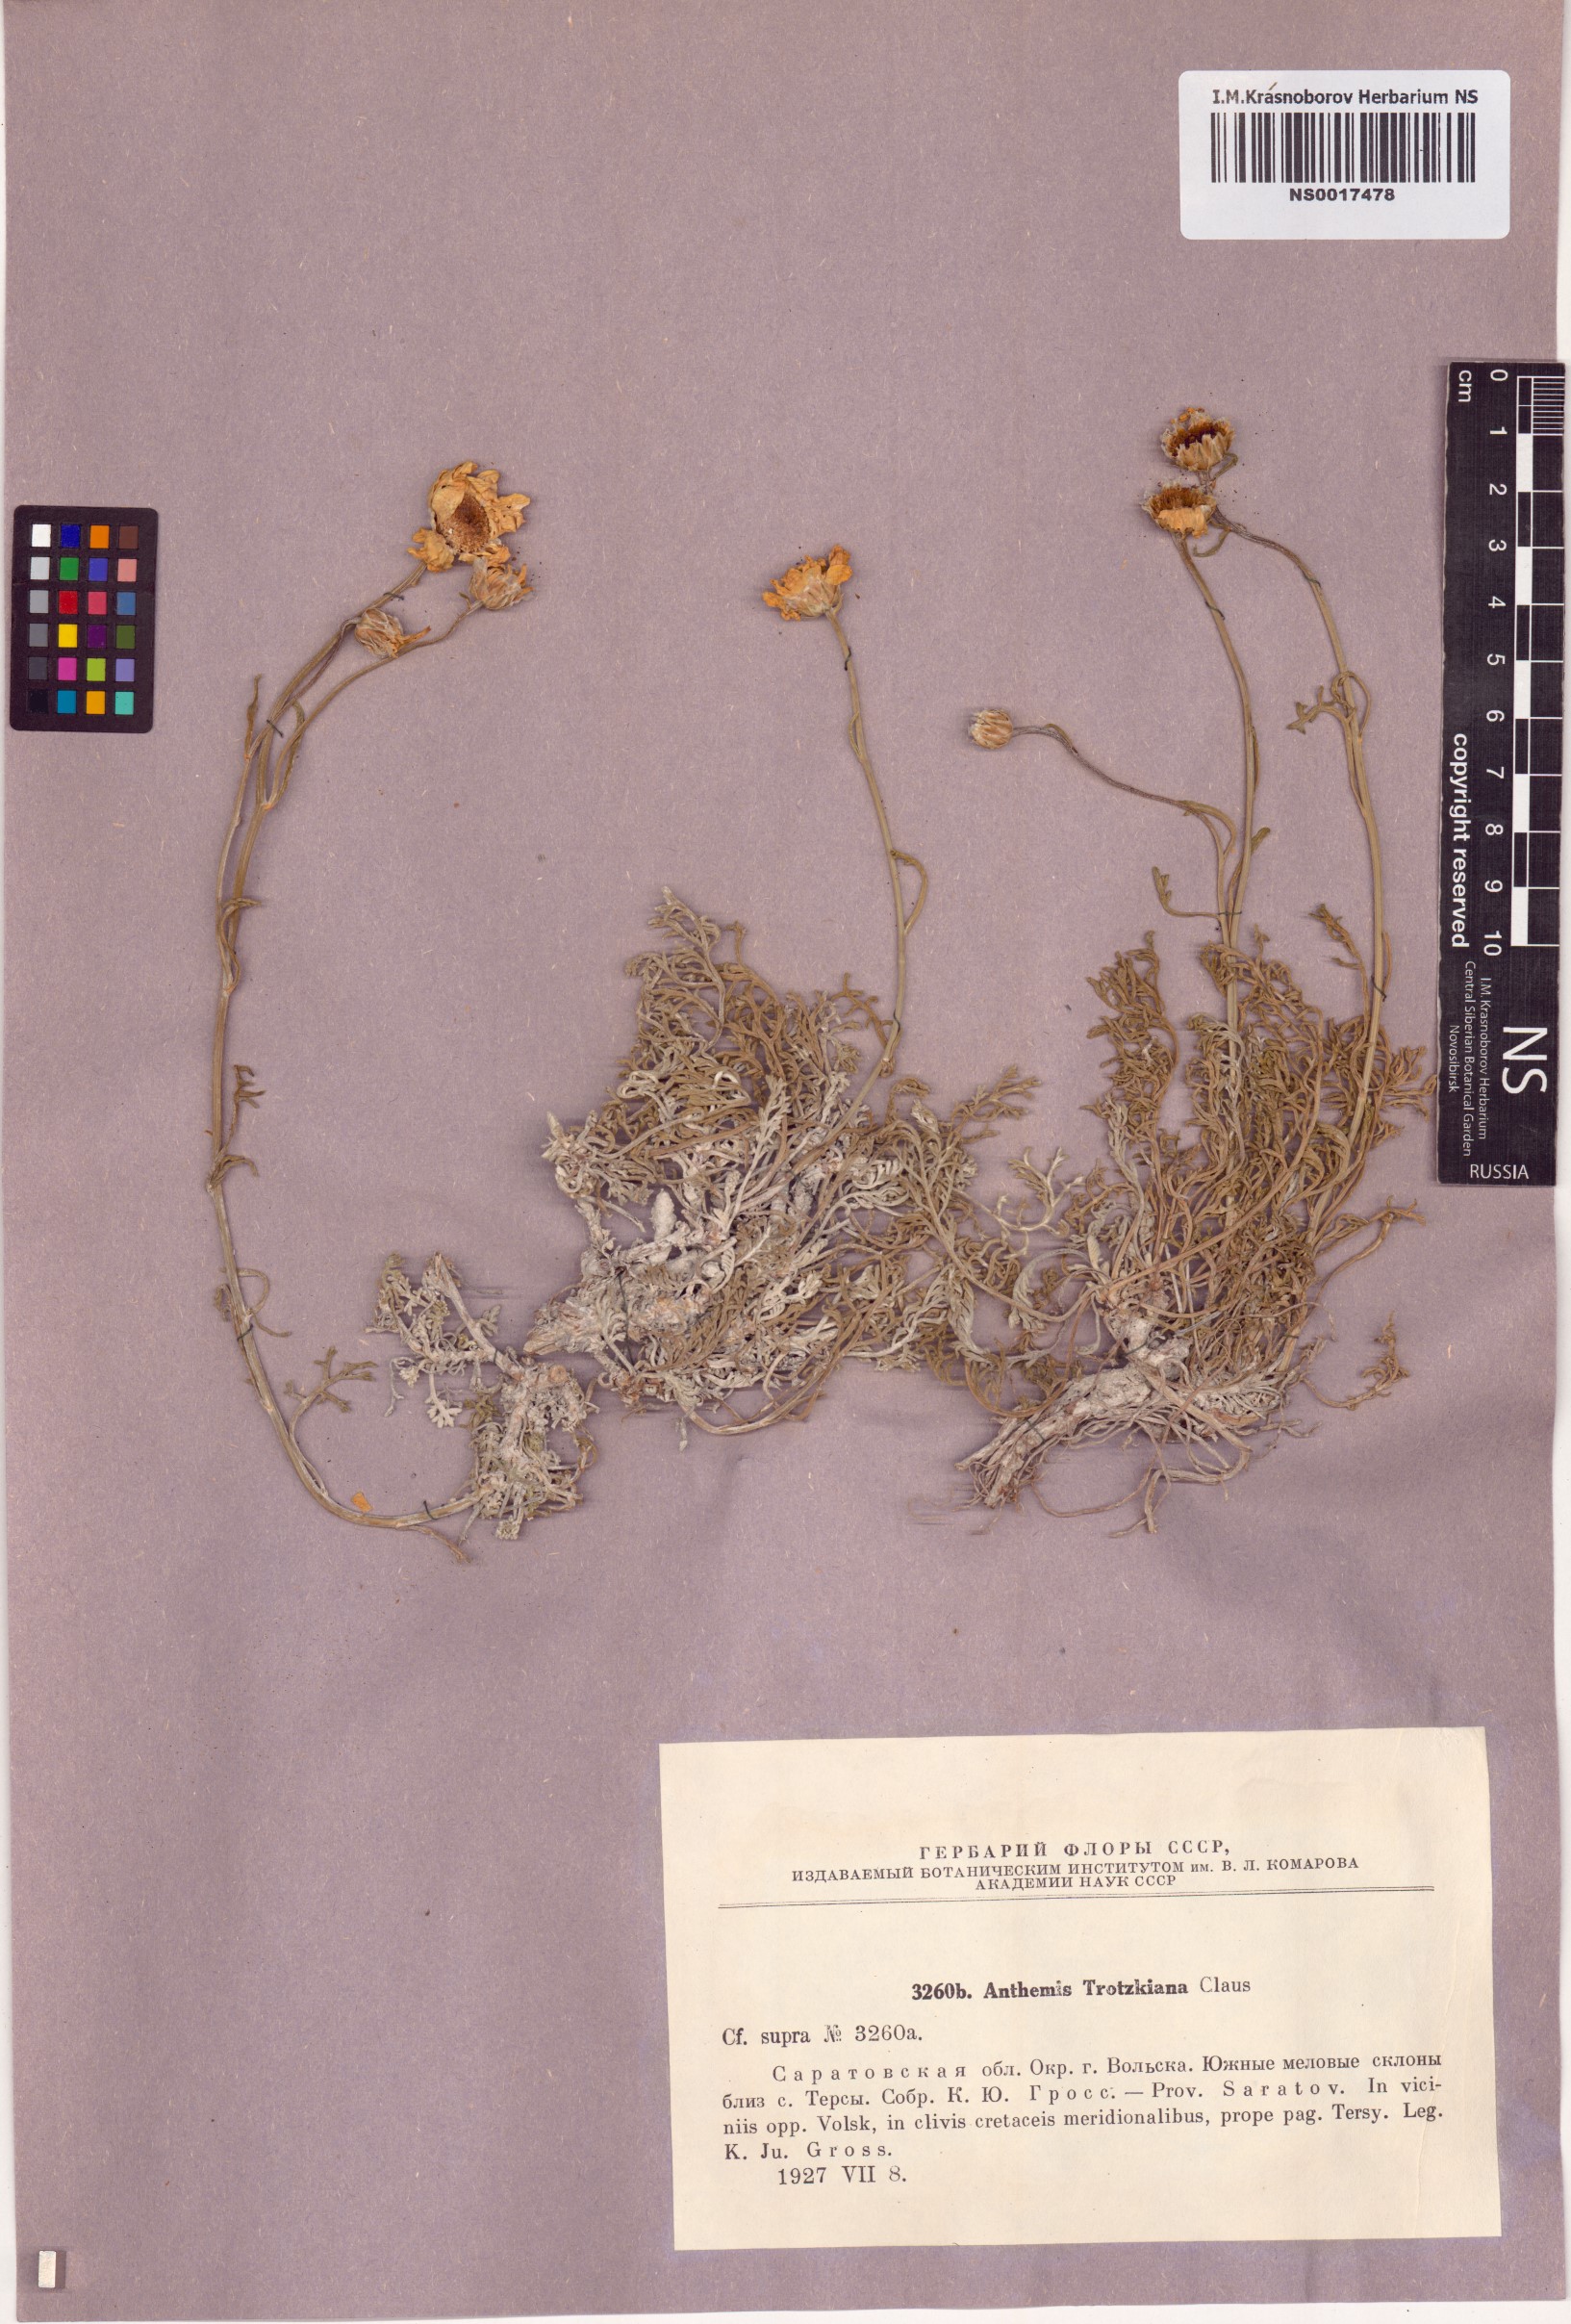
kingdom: Plantae
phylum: Tracheophyta
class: Magnoliopsida
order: Asterales
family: Asteraceae
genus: Archanthemis
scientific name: Archanthemis trotzkiana
